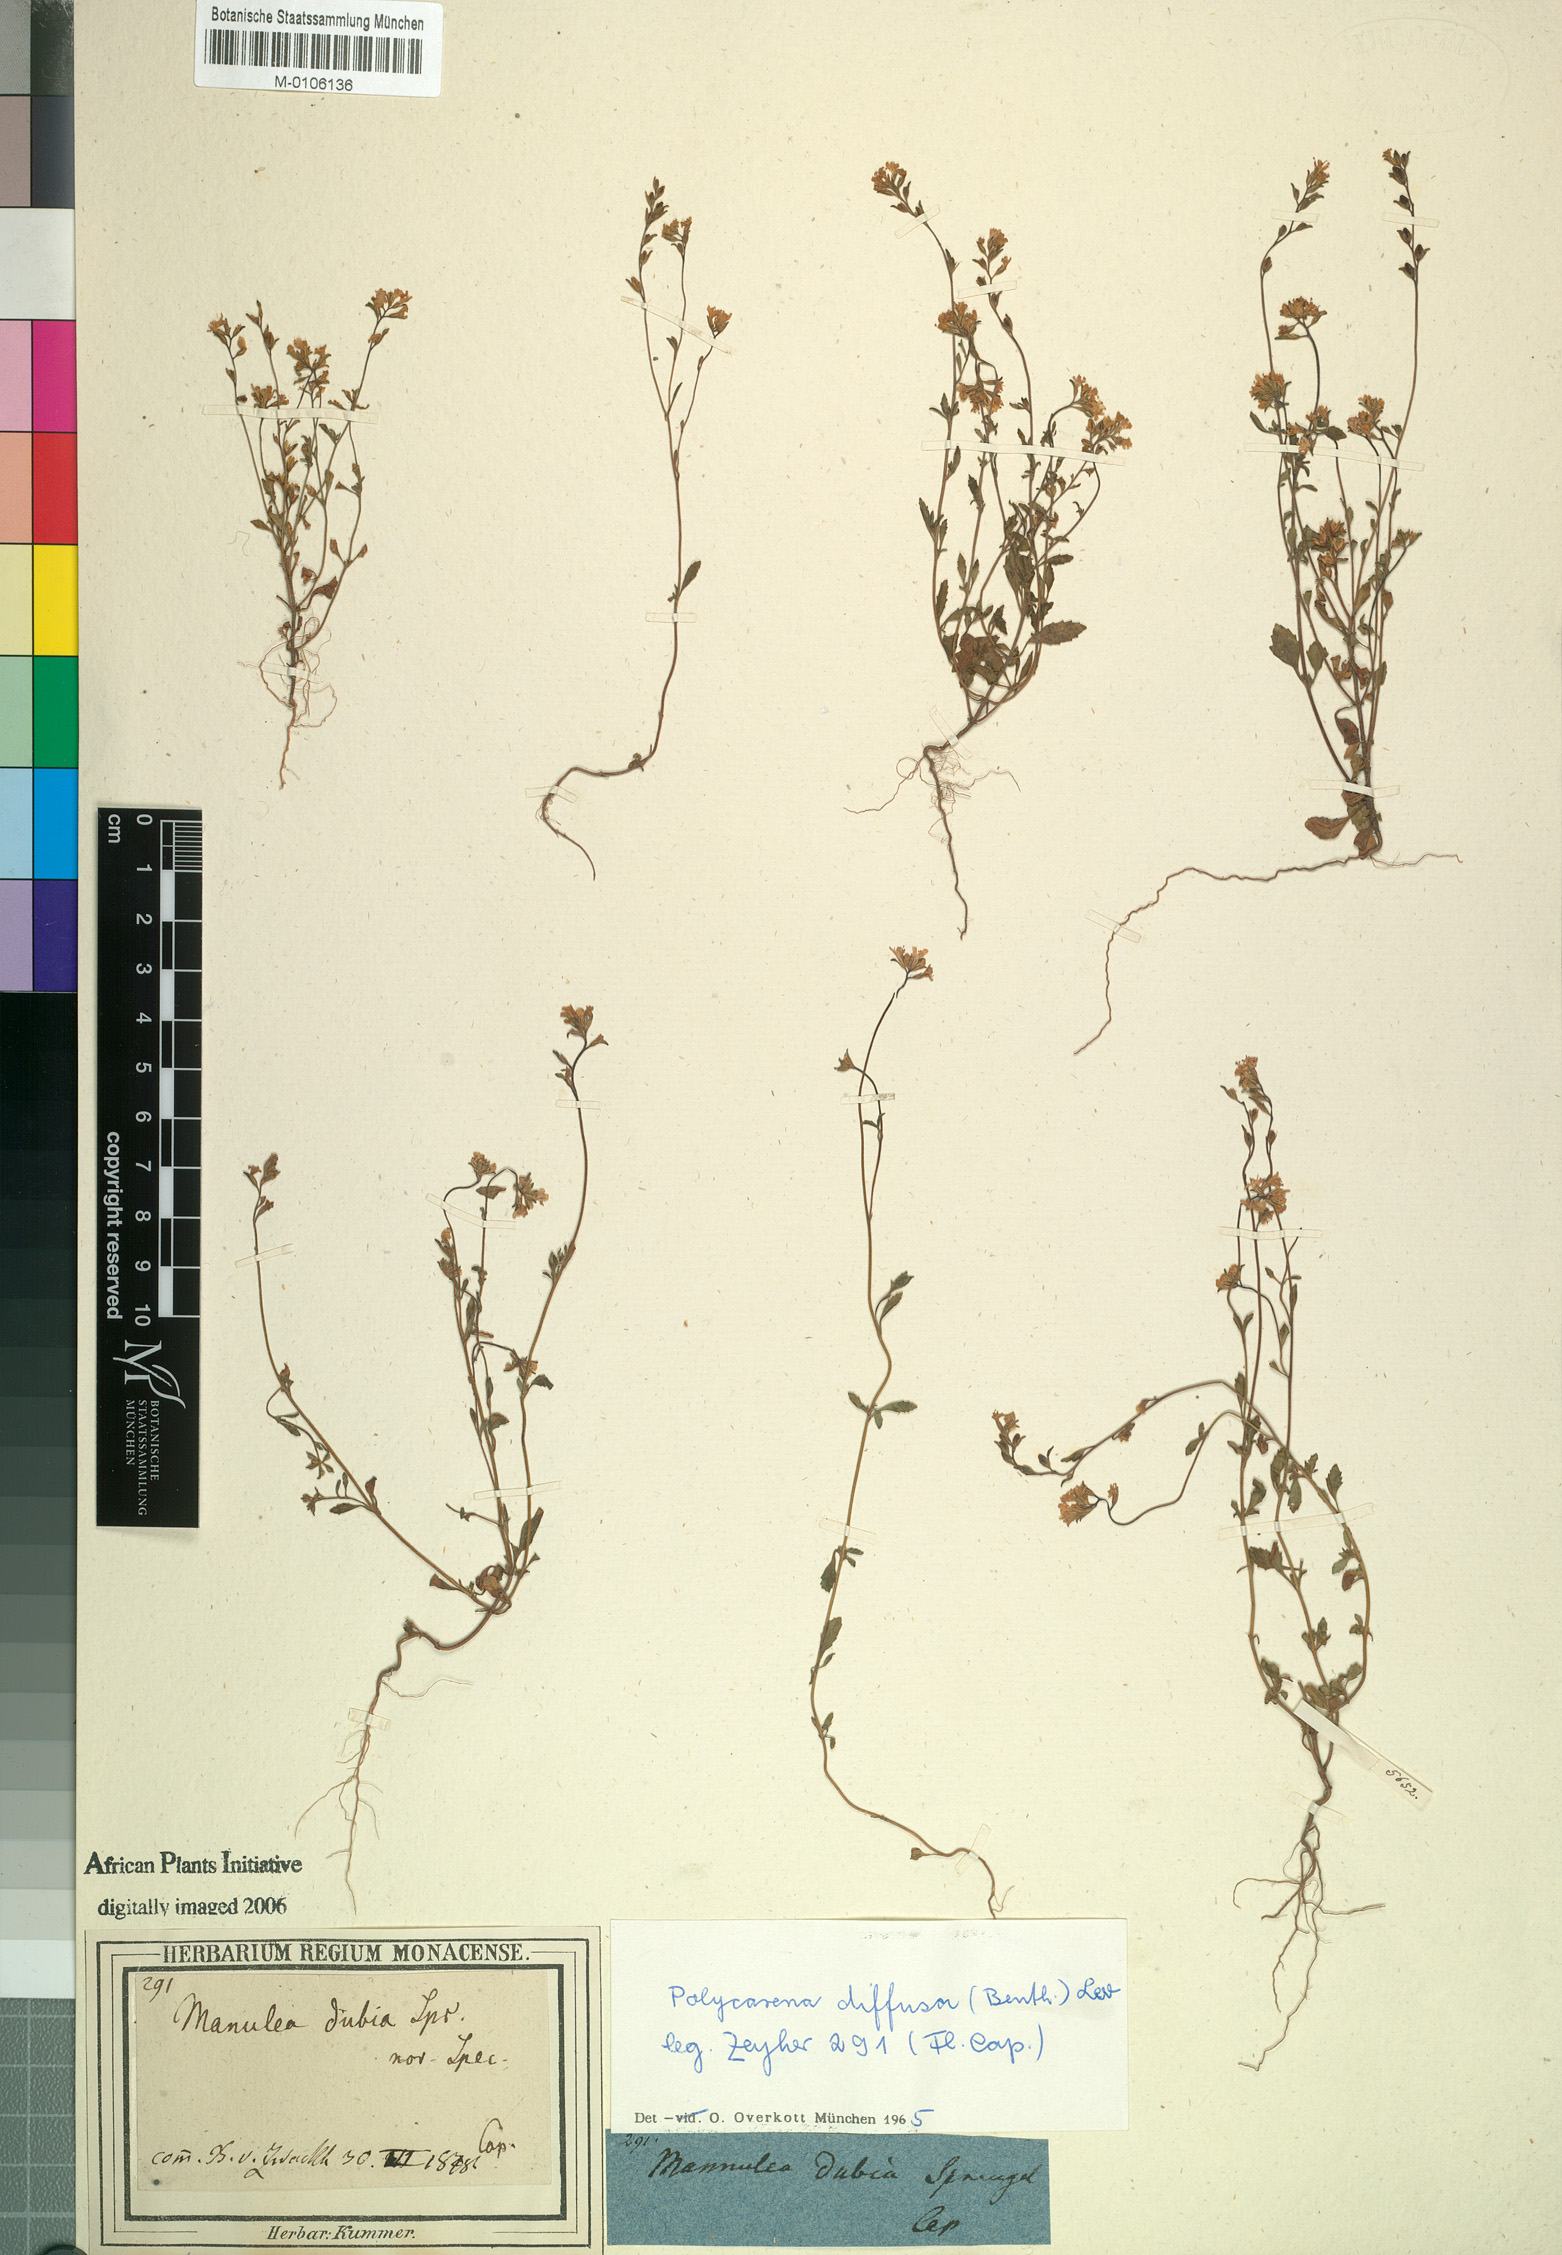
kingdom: Plantae
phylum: Tracheophyta
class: Magnoliopsida
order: Lamiales
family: Scrophulariaceae
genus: Phyllopodium
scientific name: Phyllopodium diffusum
